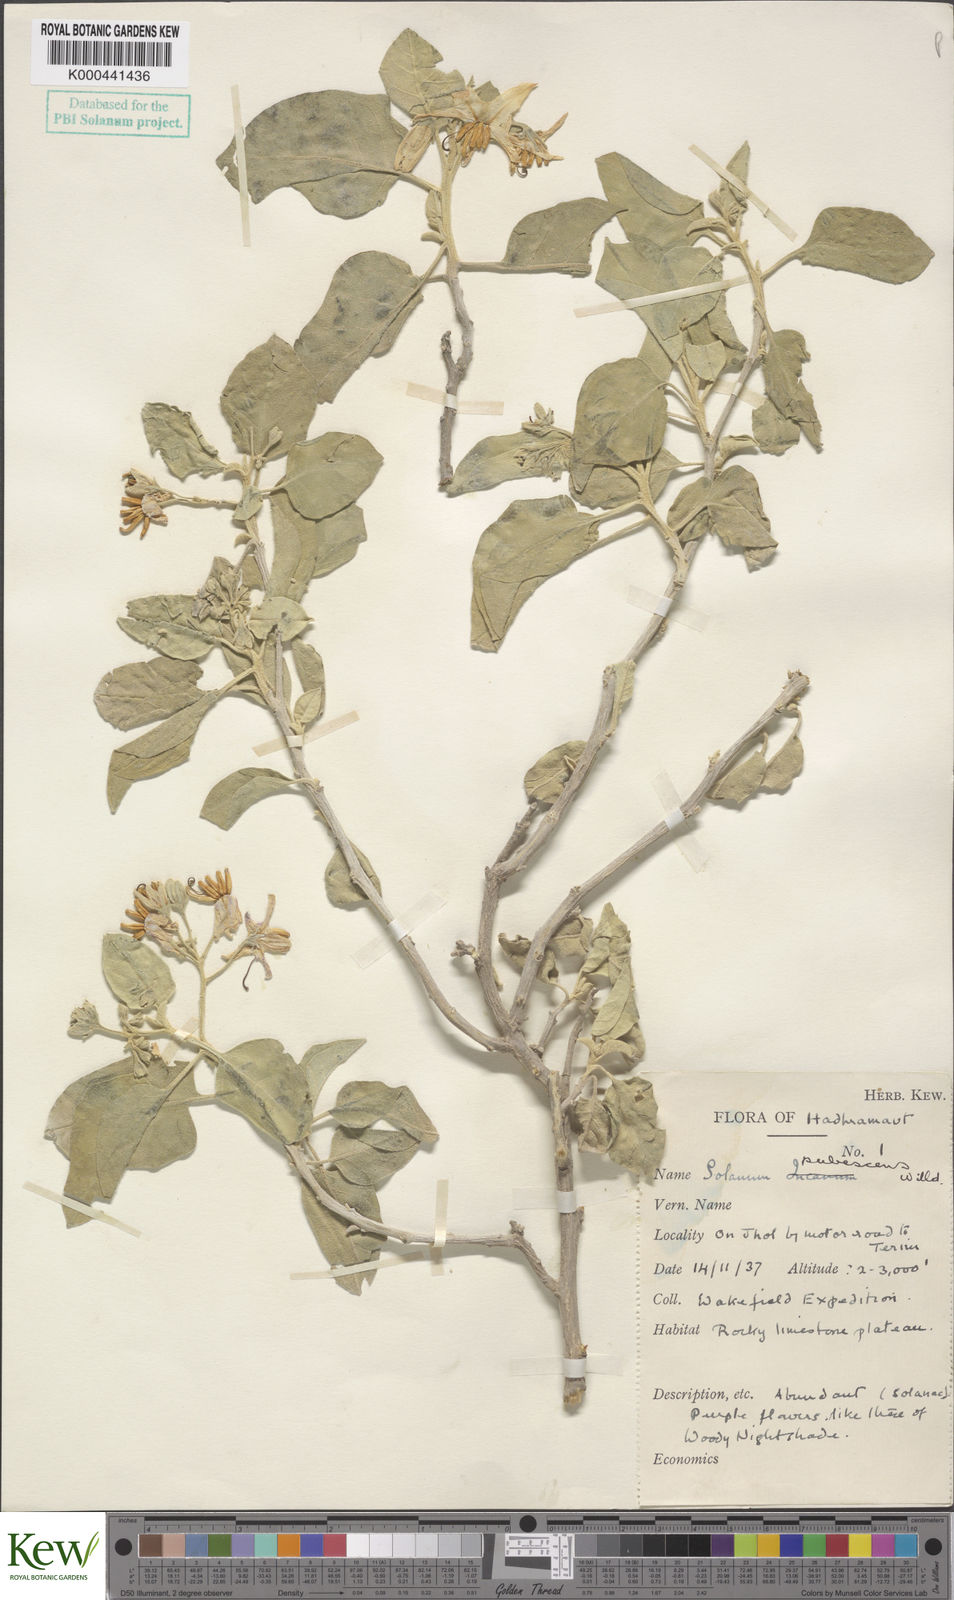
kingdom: Plantae
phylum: Tracheophyta
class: Magnoliopsida
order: Solanales
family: Solanaceae
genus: Solanum
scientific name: Solanum pubescens
